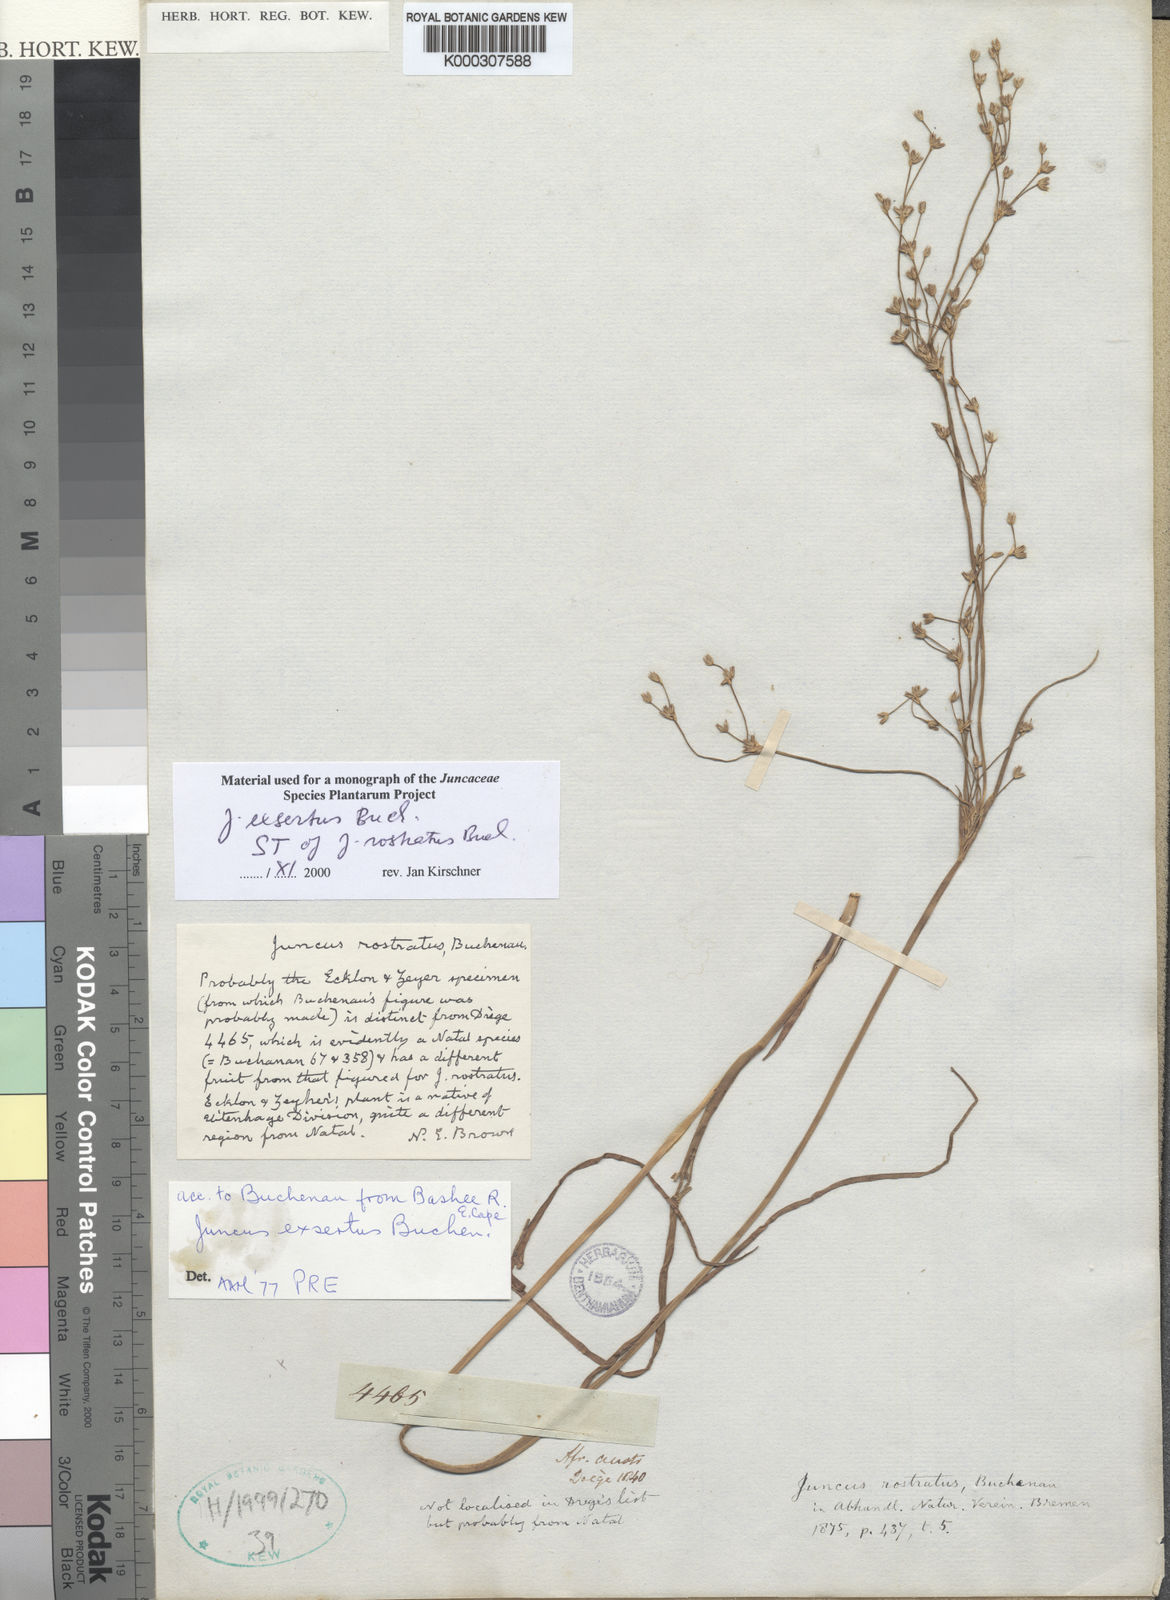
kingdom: Plantae
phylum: Tracheophyta
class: Liliopsida
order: Poales
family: Juncaceae
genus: Juncus
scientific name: Juncus exsertus
